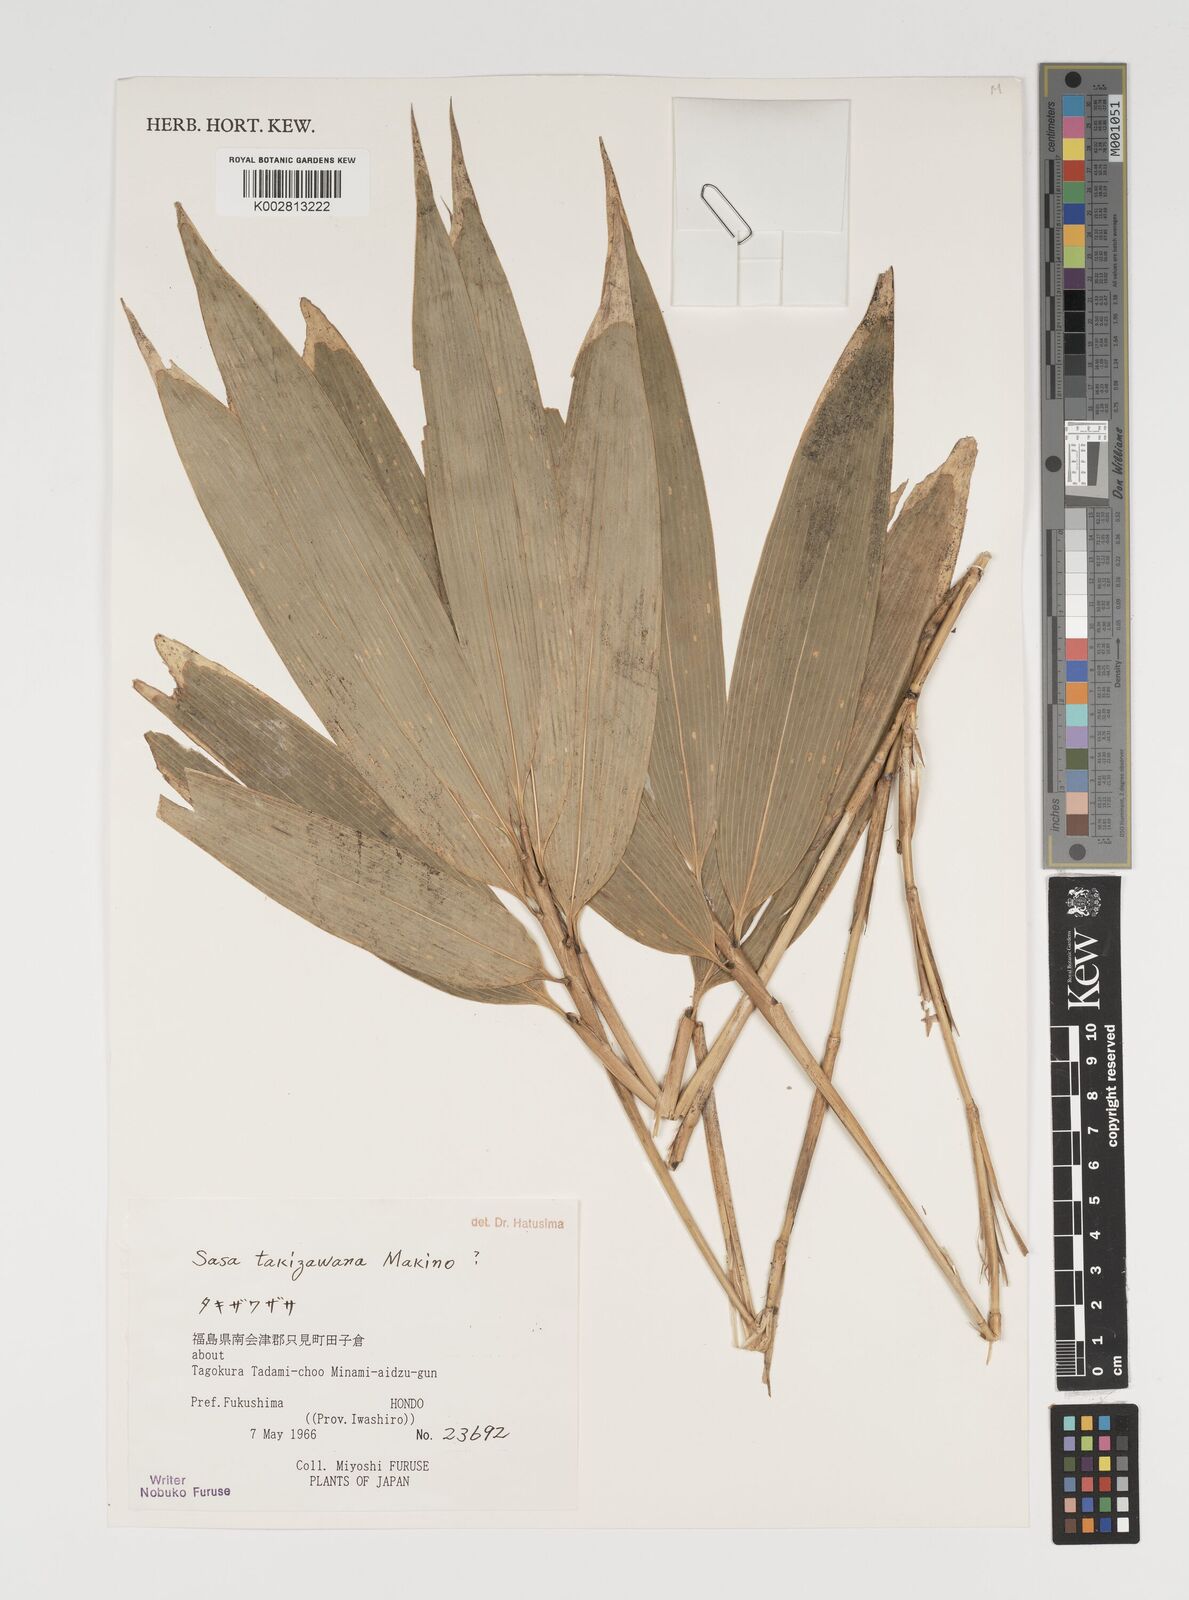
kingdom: Plantae
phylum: Tracheophyta
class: Liliopsida
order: Poales
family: Poaceae
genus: Sasa
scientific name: Sasa takizawana
